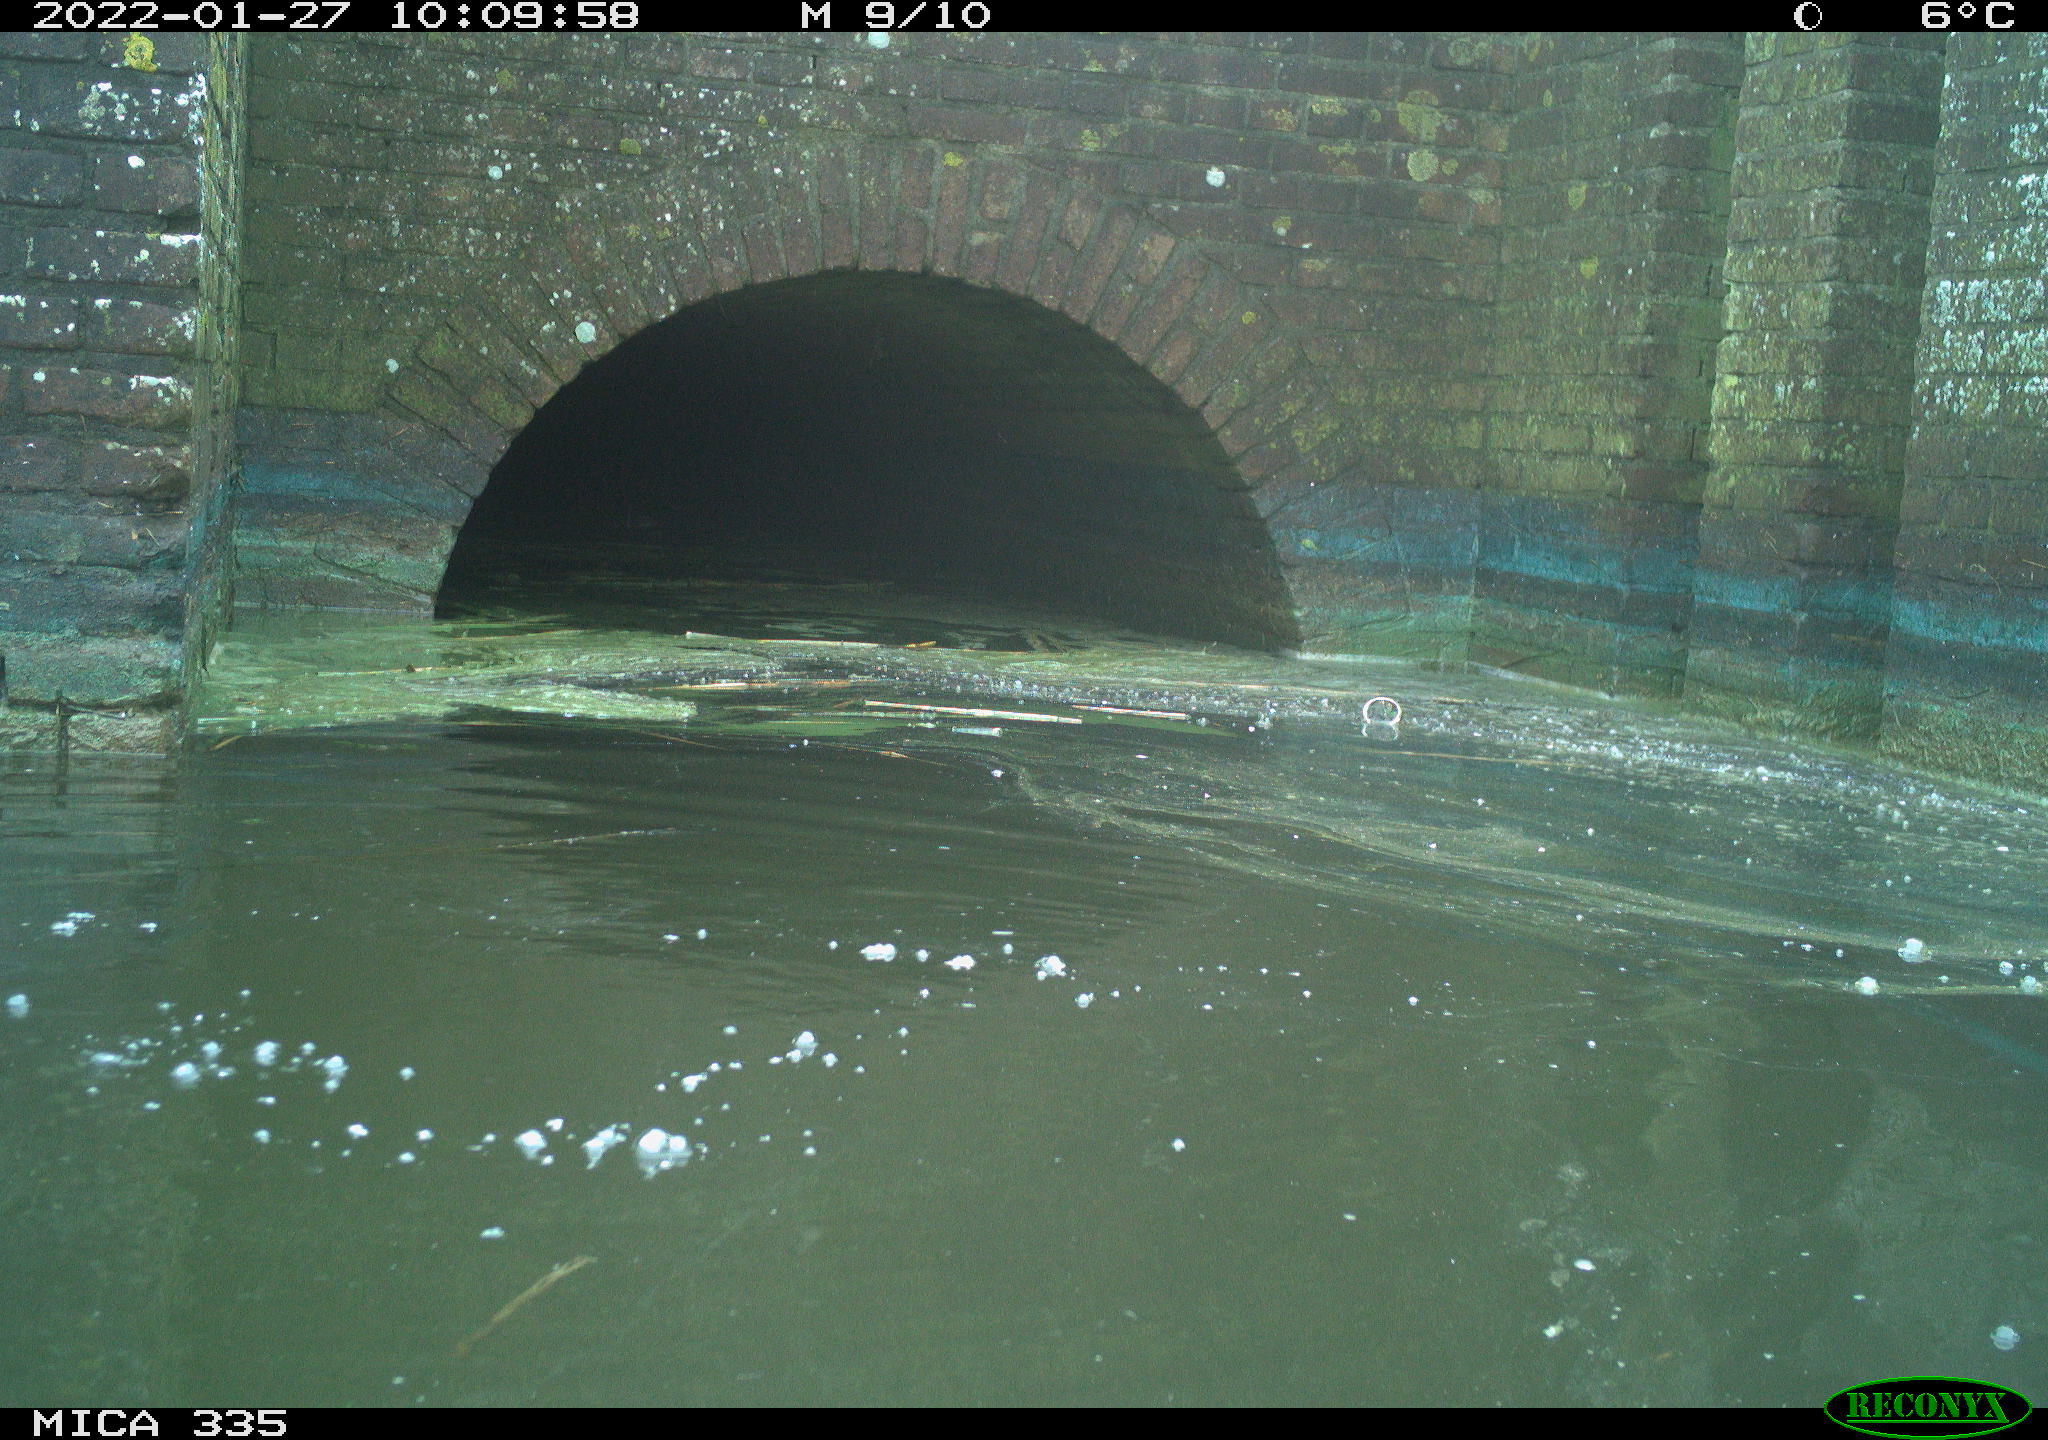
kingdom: Animalia
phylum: Chordata
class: Aves
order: Gruiformes
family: Rallidae
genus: Fulica
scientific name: Fulica atra
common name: Eurasian coot
